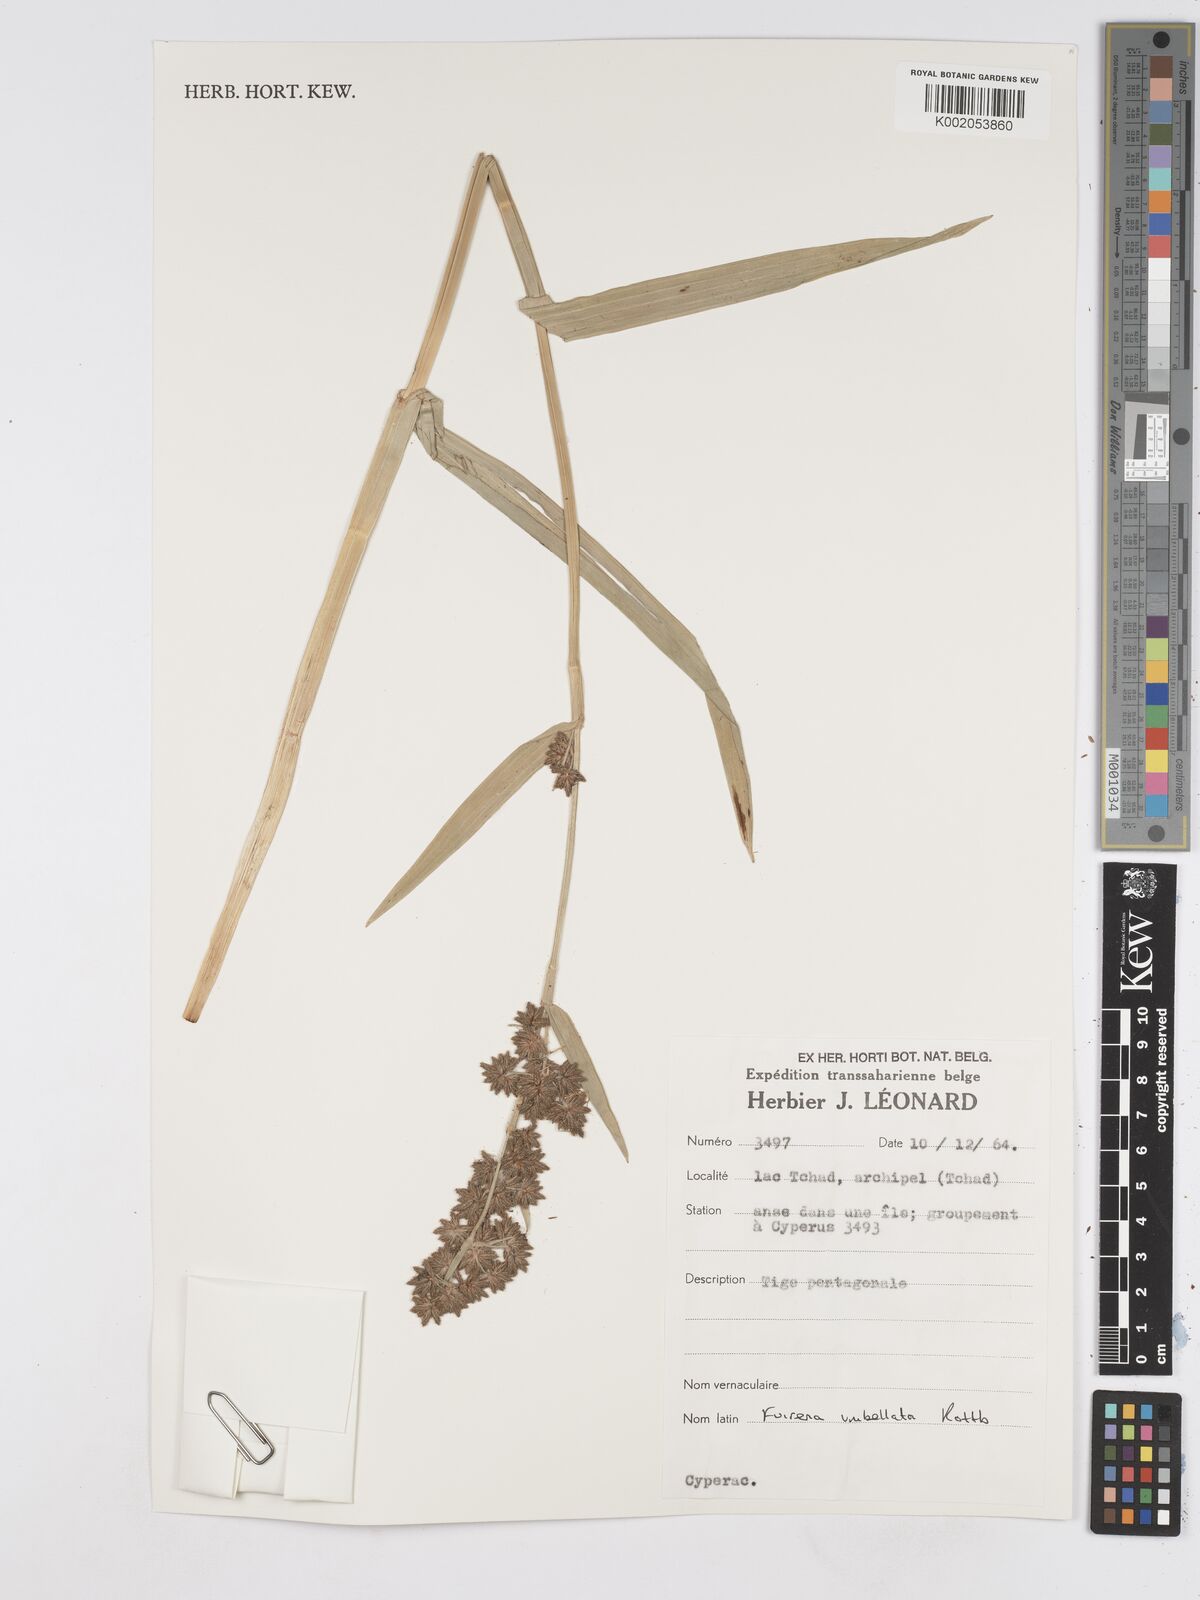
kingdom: Plantae
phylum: Tracheophyta
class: Liliopsida
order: Poales
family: Cyperaceae
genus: Fuirena
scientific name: Fuirena umbellata
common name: Yefen
